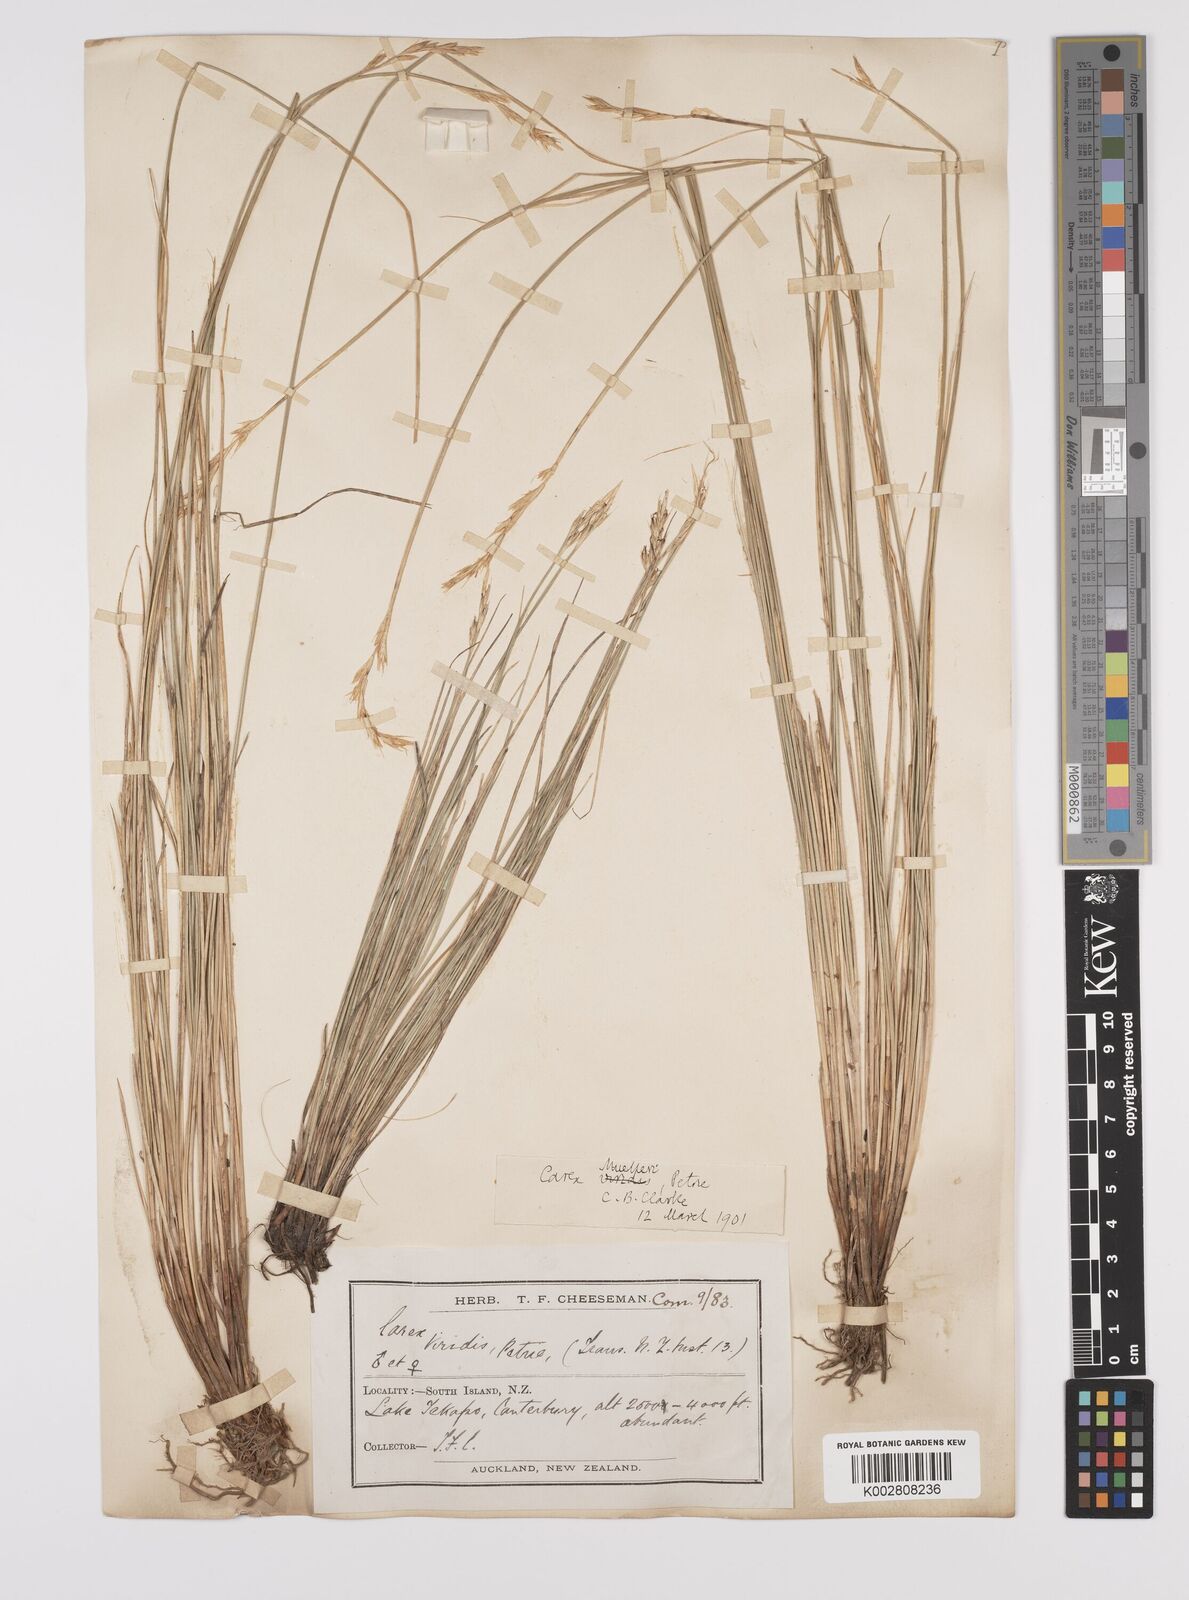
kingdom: Plantae
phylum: Tracheophyta
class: Liliopsida
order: Poales
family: Cyperaceae
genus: Carex
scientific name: Carex muelleri
